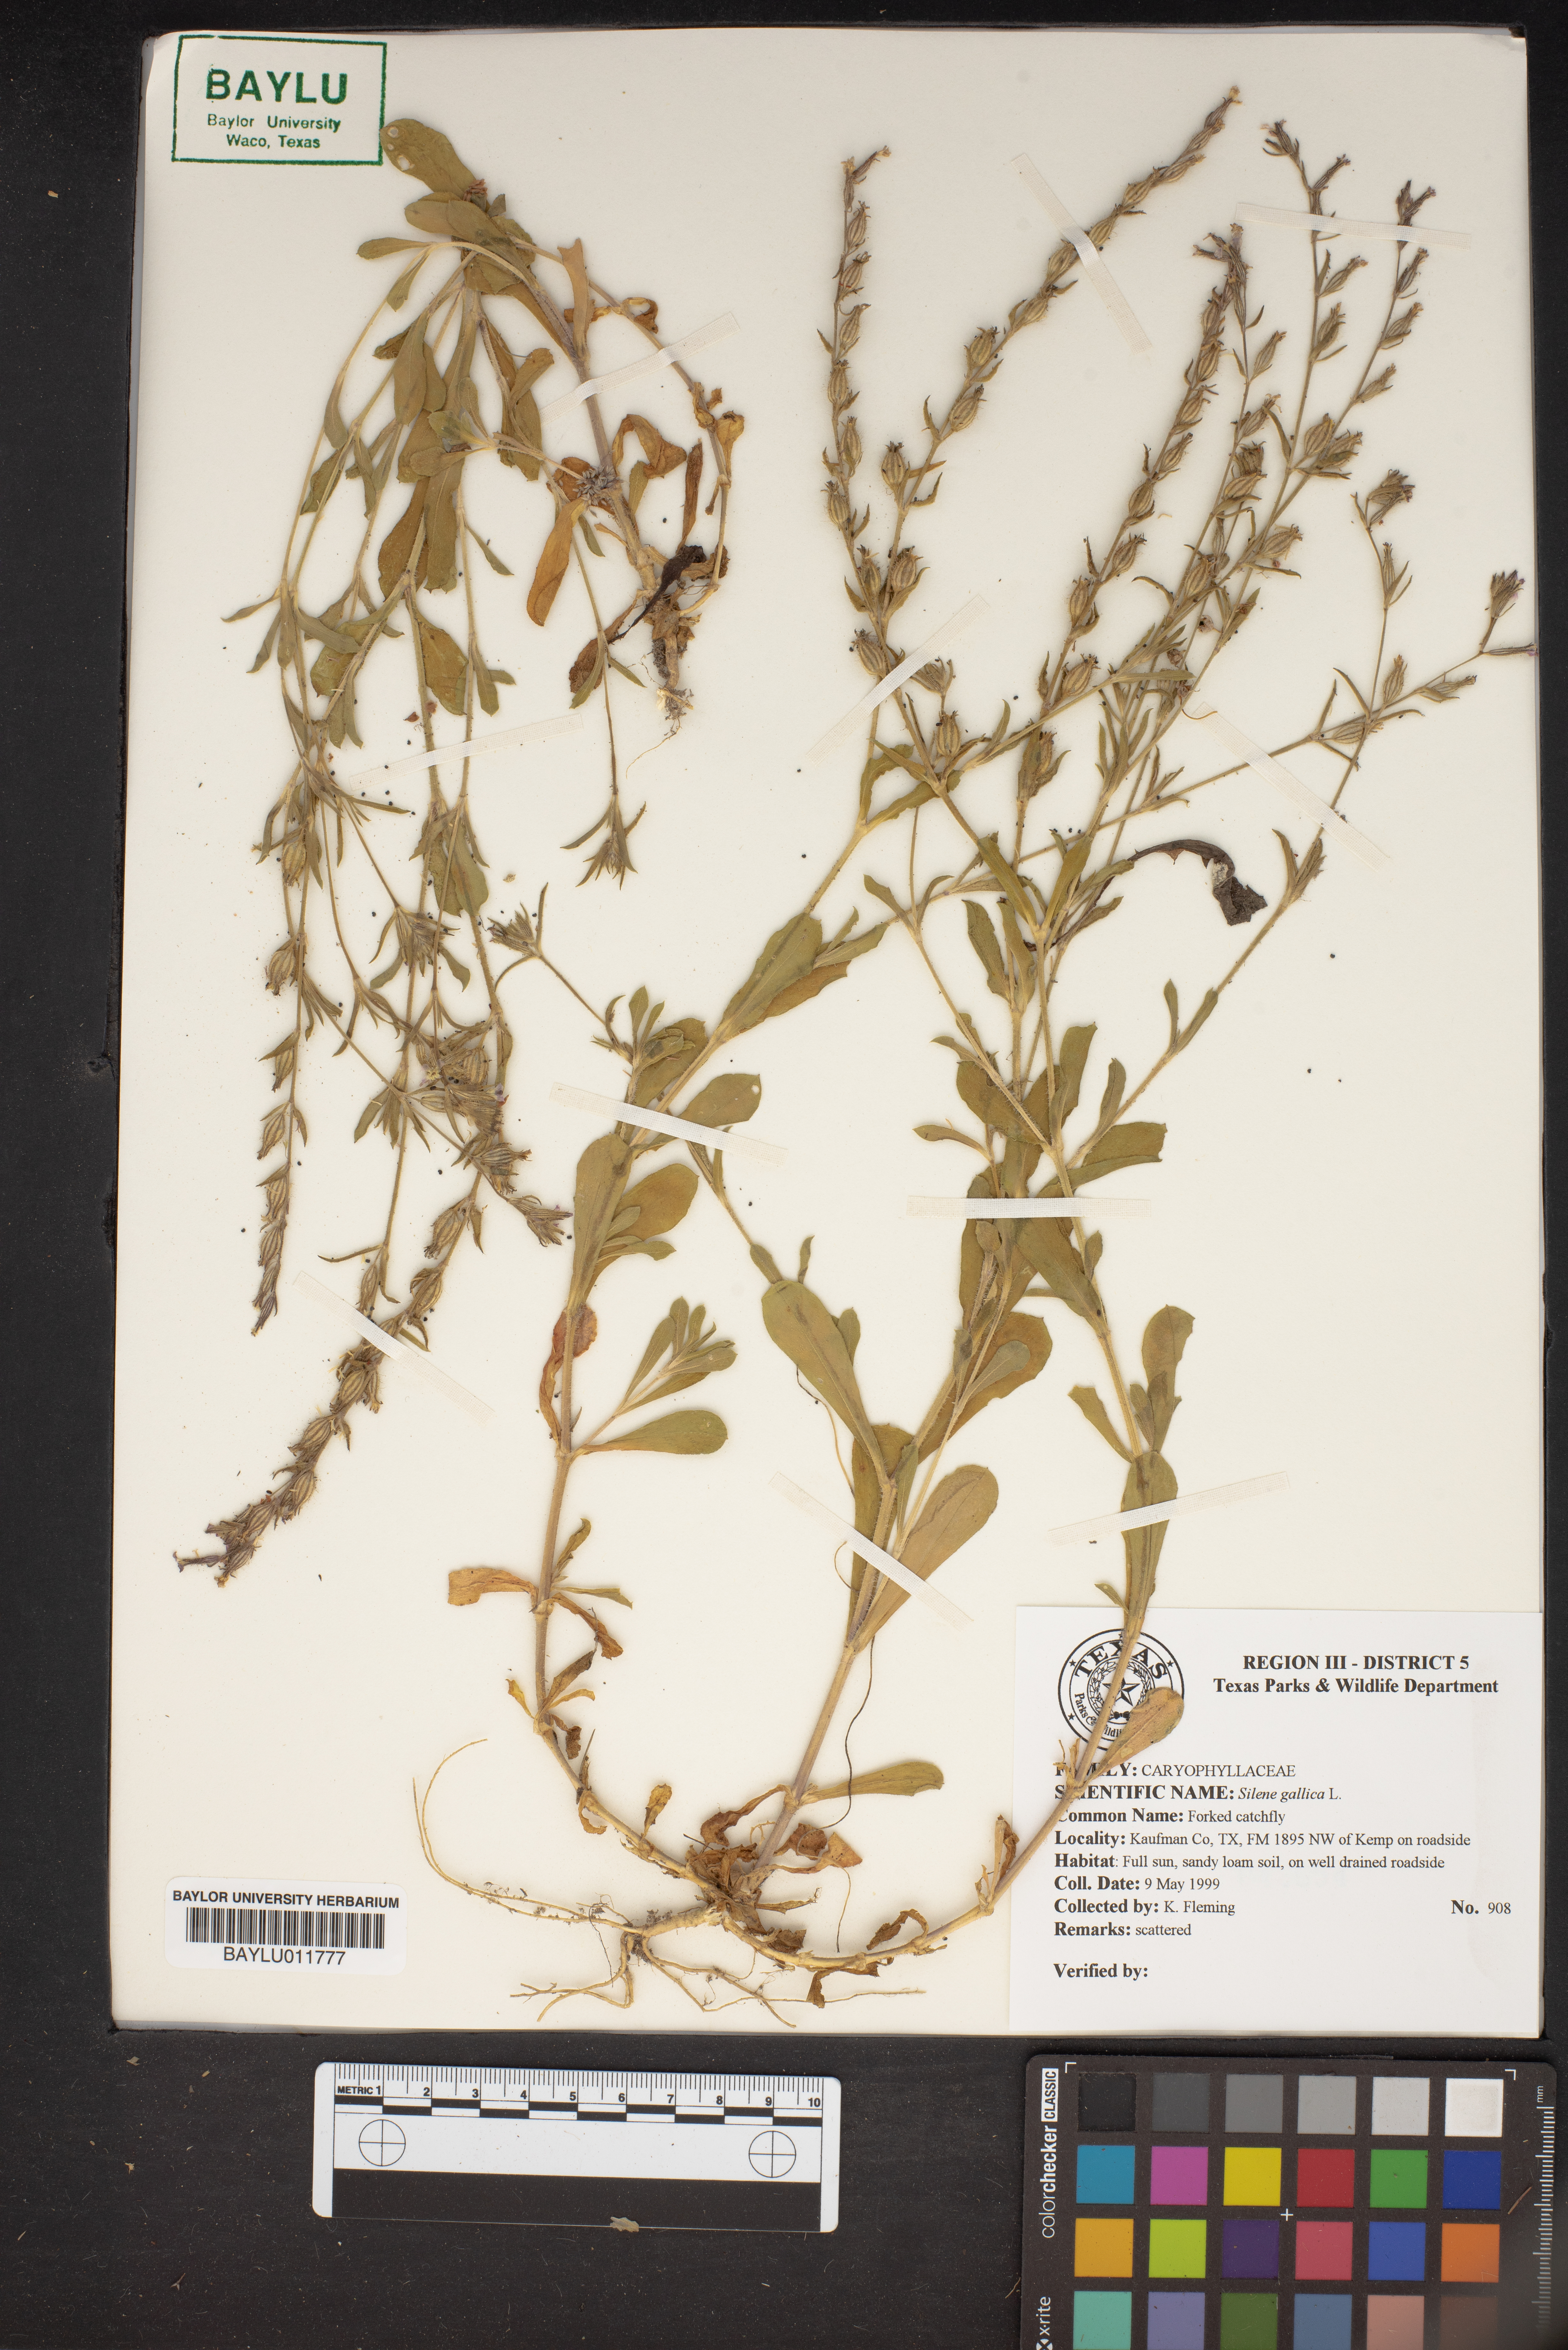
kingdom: Plantae
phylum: Tracheophyta
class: Magnoliopsida
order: Caryophyllales
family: Caryophyllaceae
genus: Silene
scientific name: Silene gallica
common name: Small-flowered catchfly
